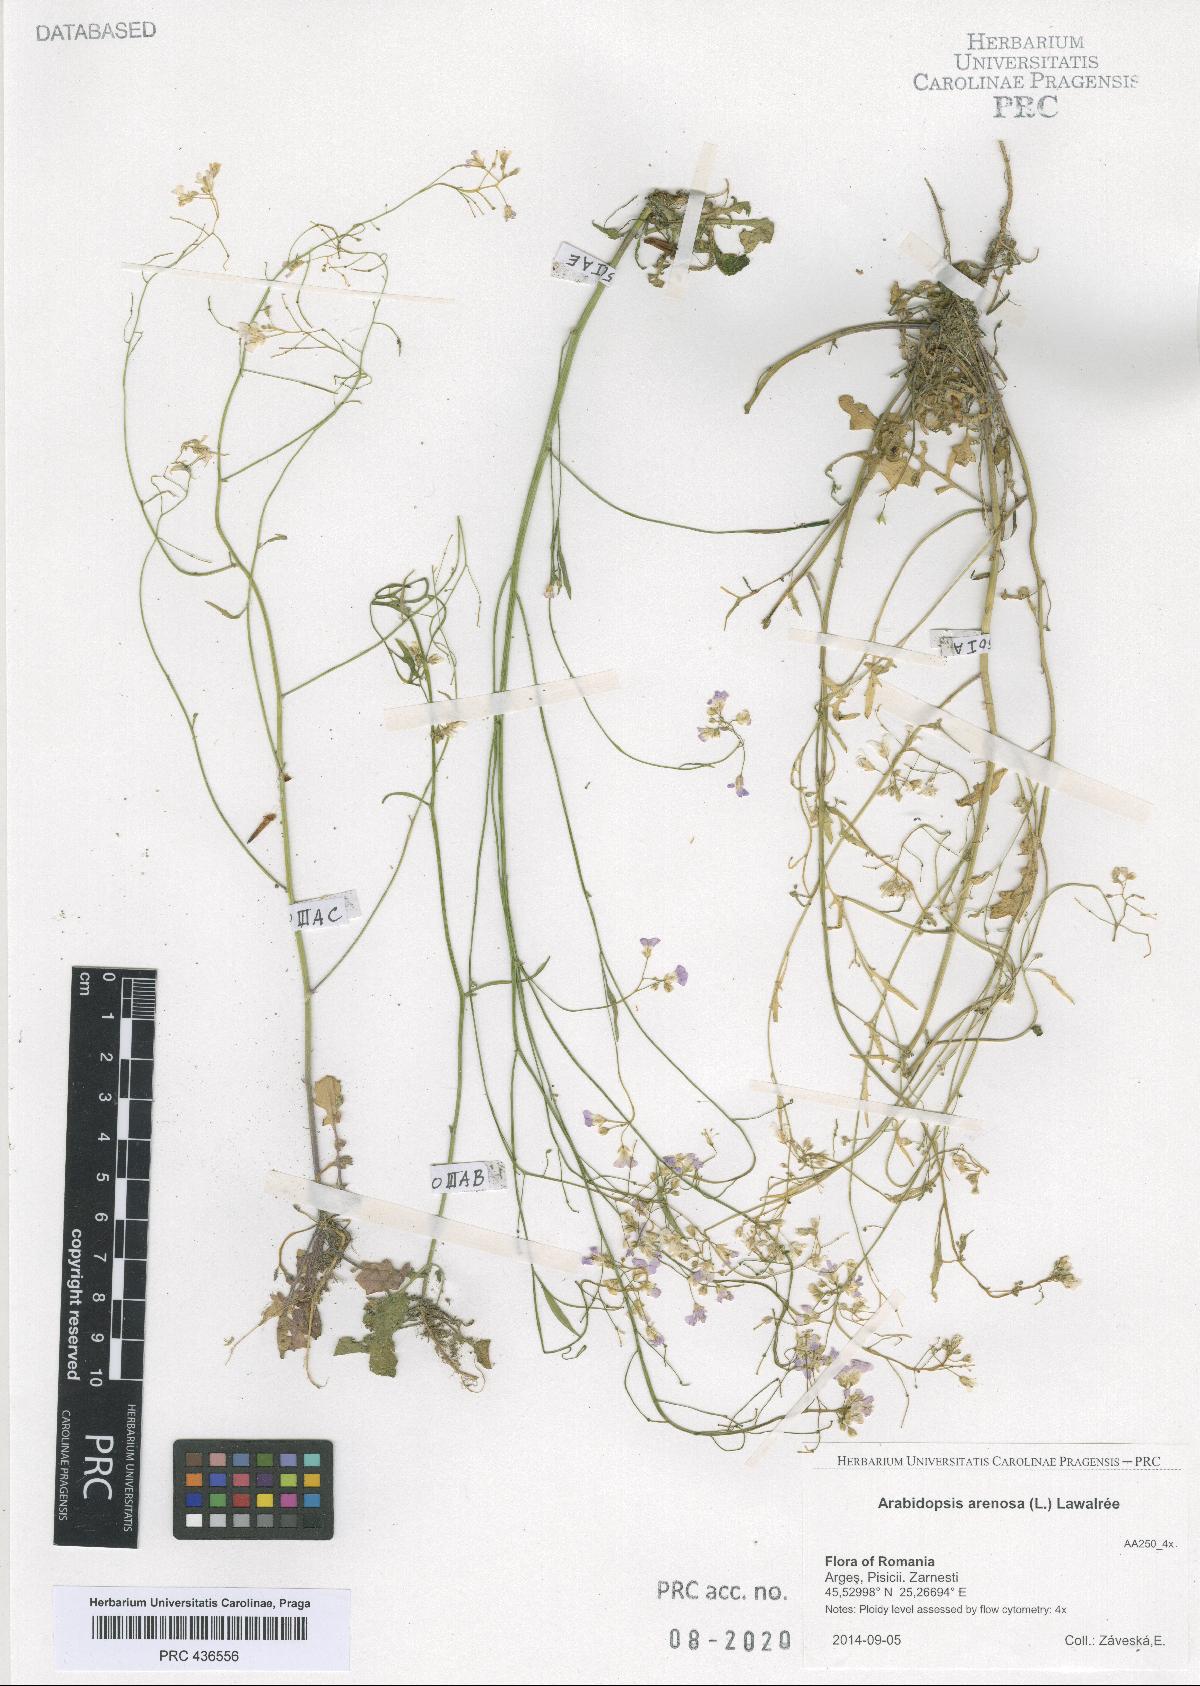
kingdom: Plantae
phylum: Tracheophyta
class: Magnoliopsida
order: Brassicales
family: Brassicaceae
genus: Arabidopsis
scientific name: Arabidopsis arenosa
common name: Sand rock-cress
